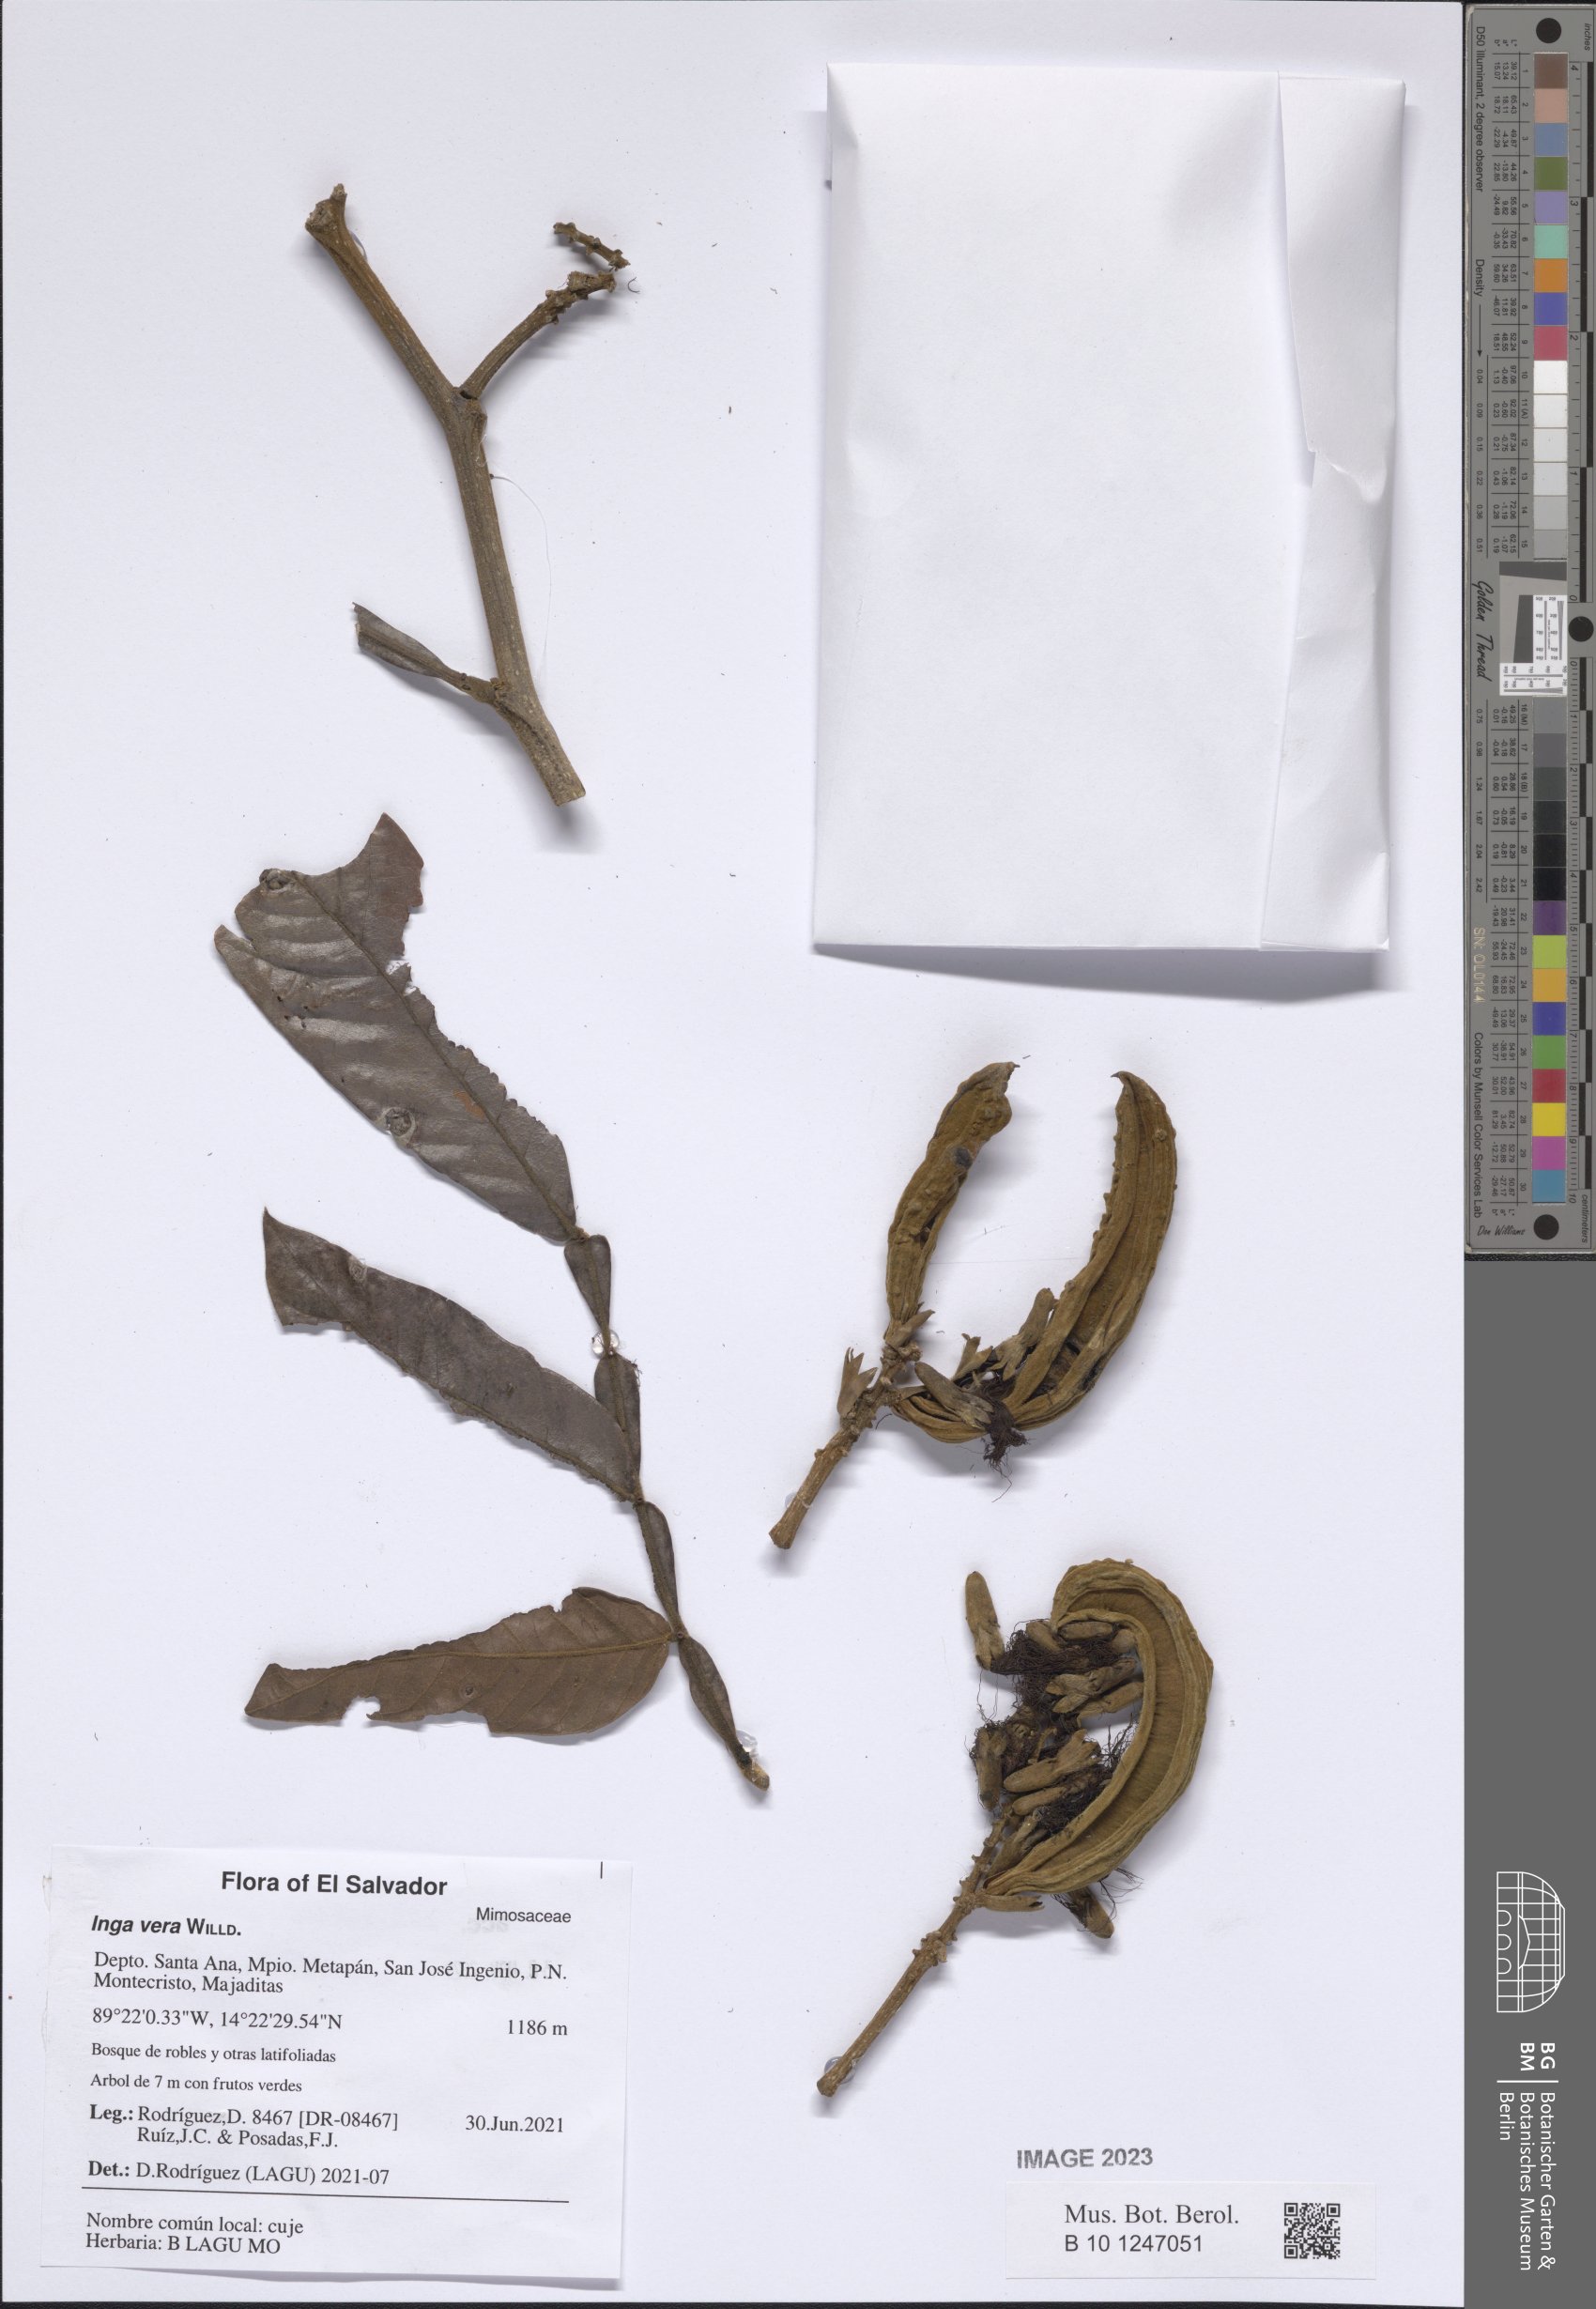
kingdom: Plantae
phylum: Tracheophyta
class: Magnoliopsida
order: Fabales
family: Fabaceae
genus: Inga
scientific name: Inga vera
